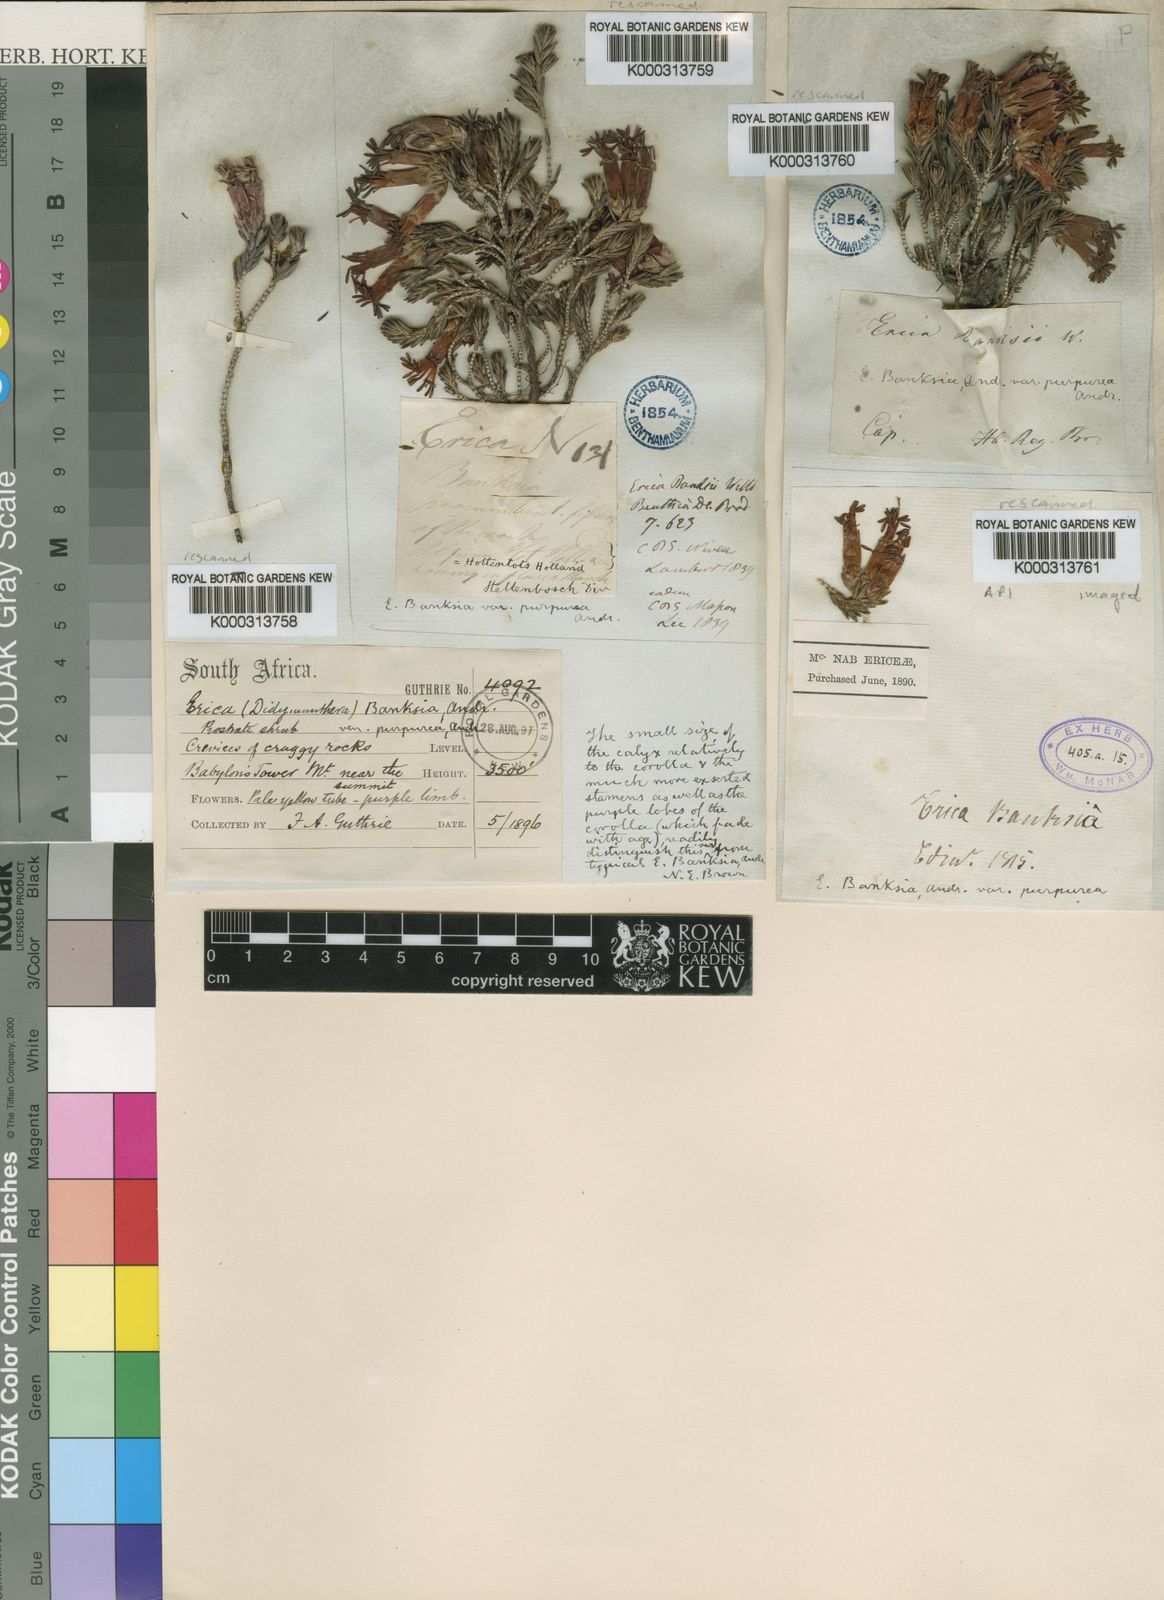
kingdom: Plantae
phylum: Tracheophyta
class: Magnoliopsida
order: Ericales
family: Ericaceae
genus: Erica
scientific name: Erica banksia
